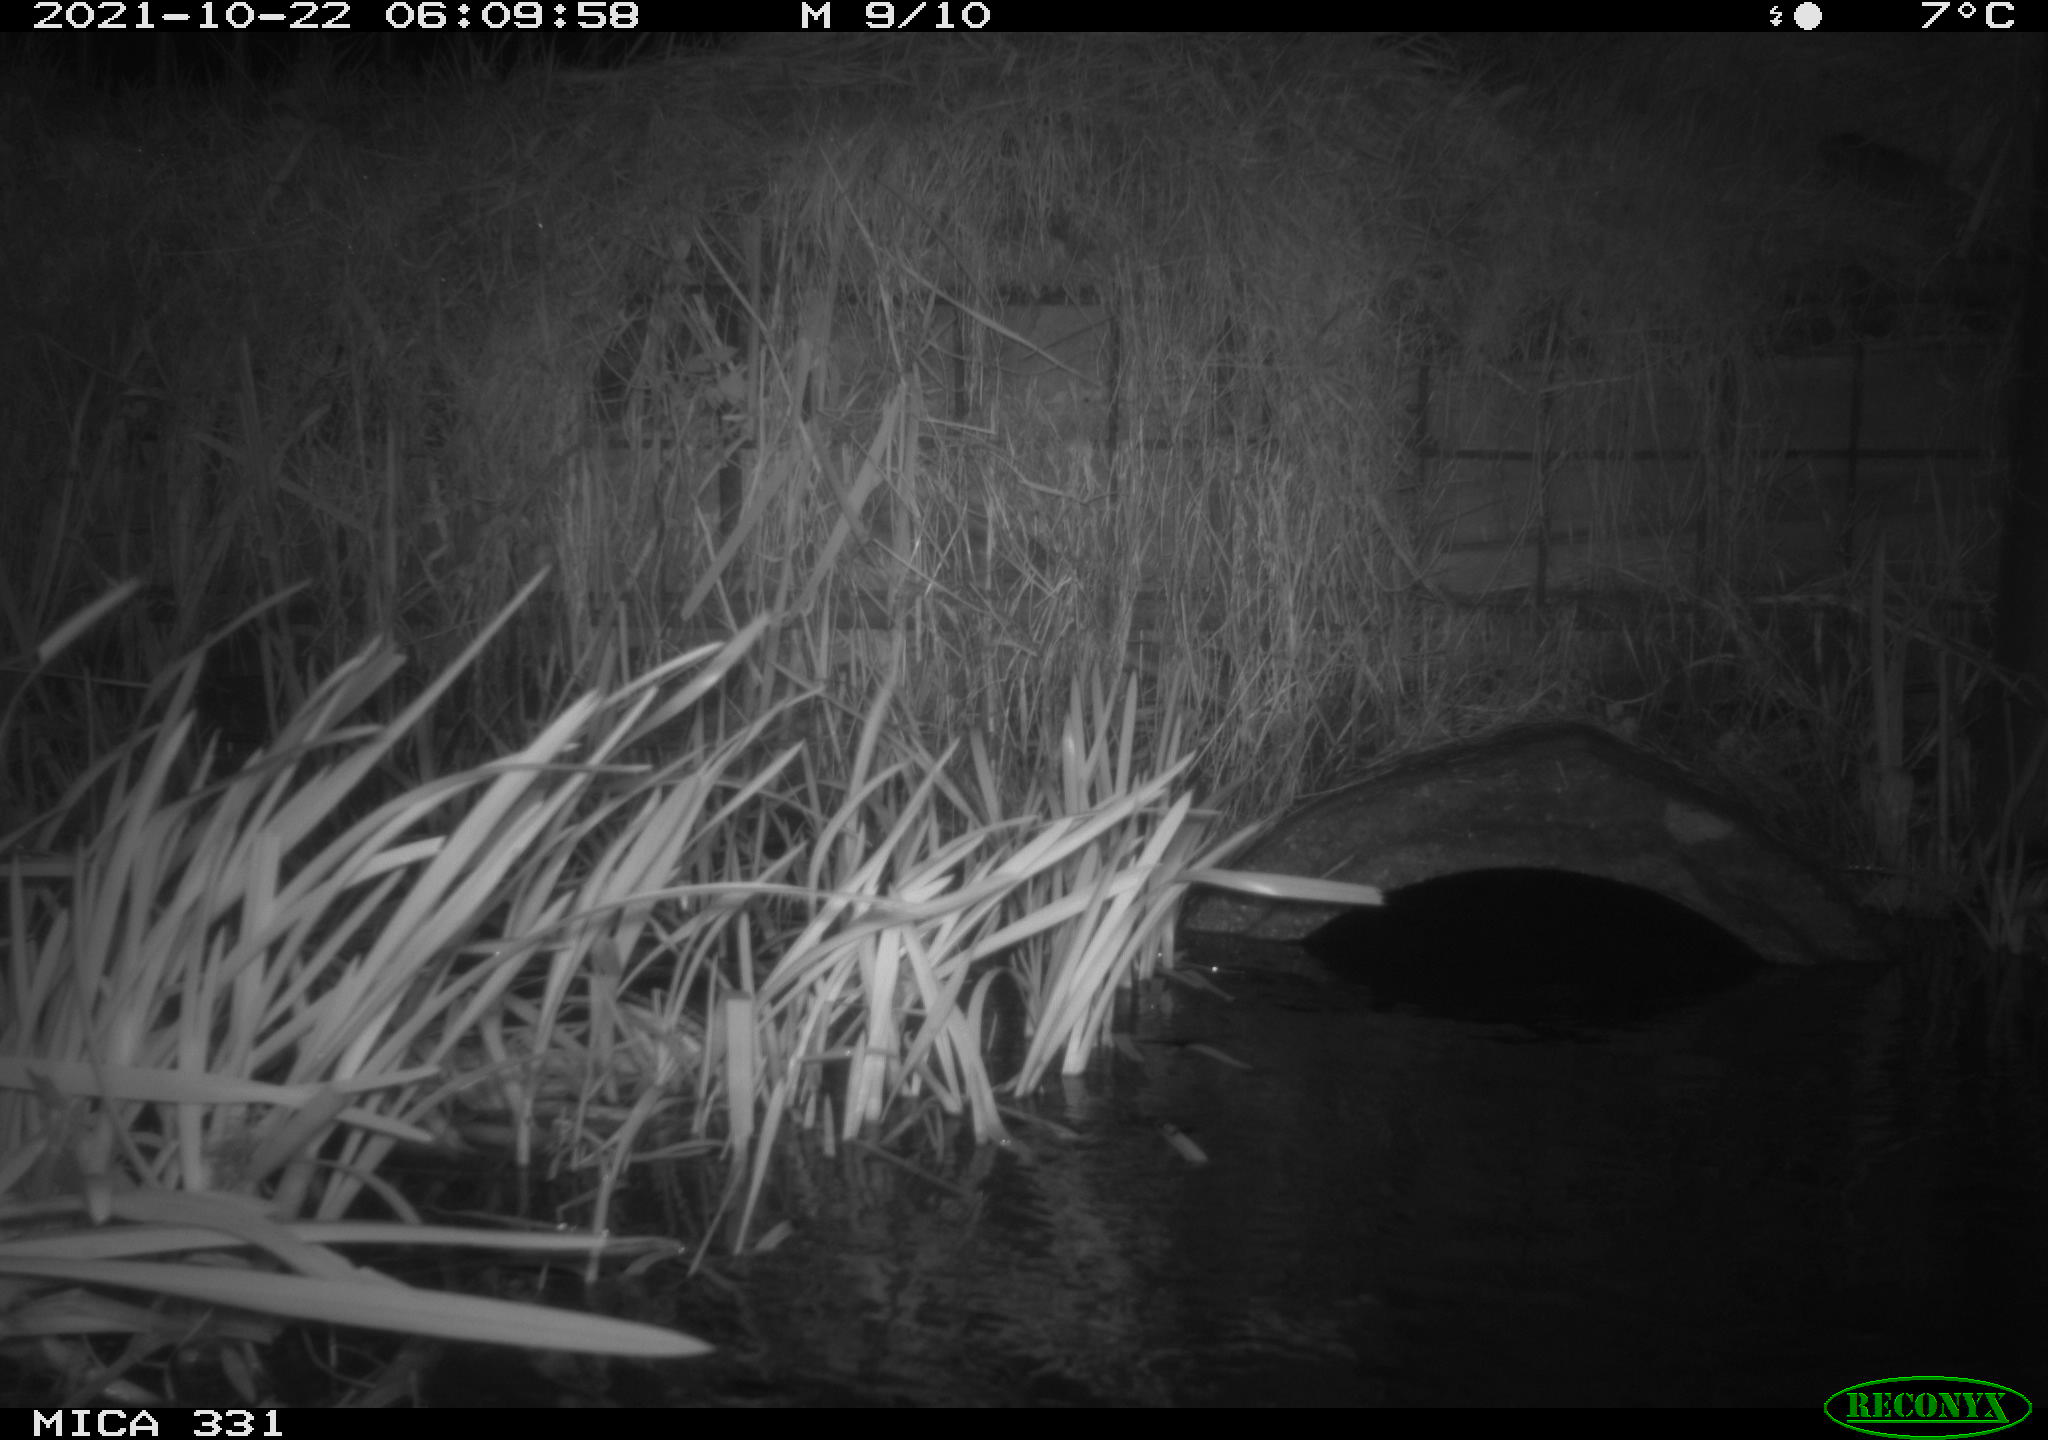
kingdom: Animalia
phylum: Chordata
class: Mammalia
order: Rodentia
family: Muridae
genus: Rattus
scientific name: Rattus norvegicus
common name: Brown rat
